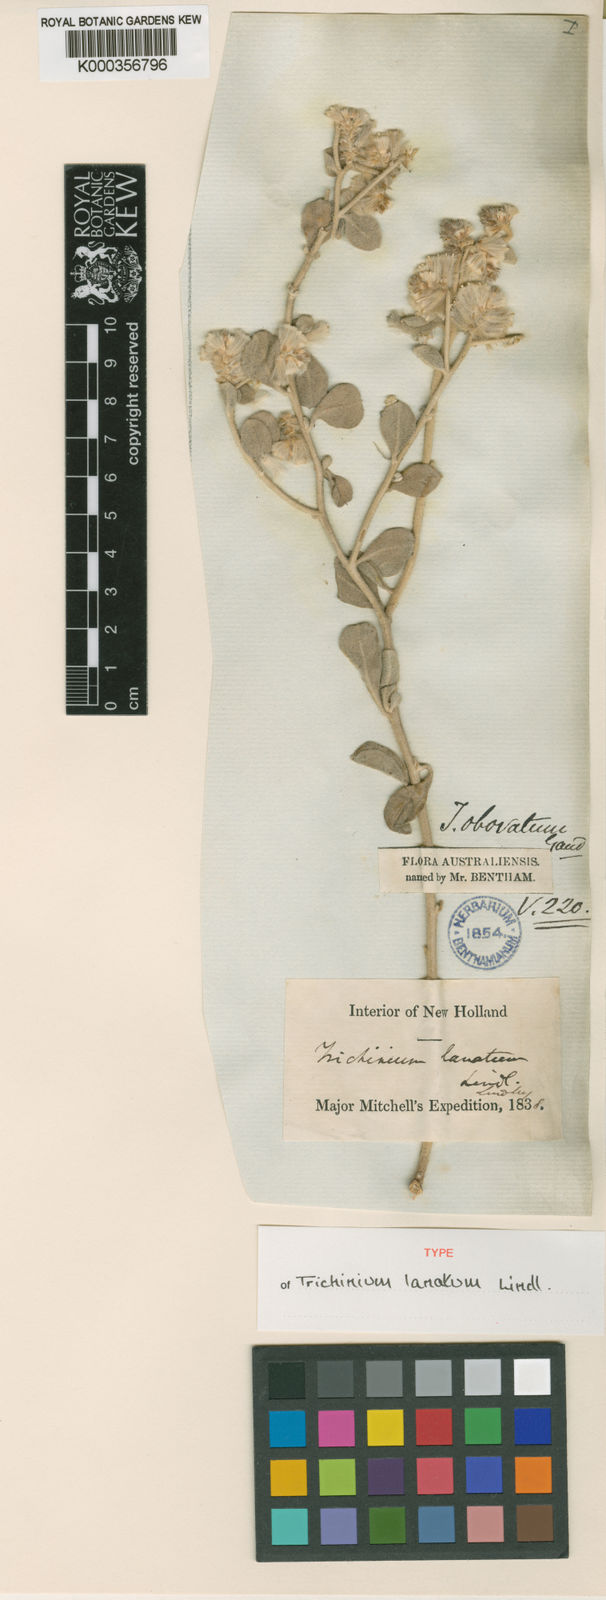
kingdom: Plantae
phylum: Tracheophyta
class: Magnoliopsida
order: Caryophyllales
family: Amaranthaceae
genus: Ptilotus
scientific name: Ptilotus obovatus
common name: Cottonbush
